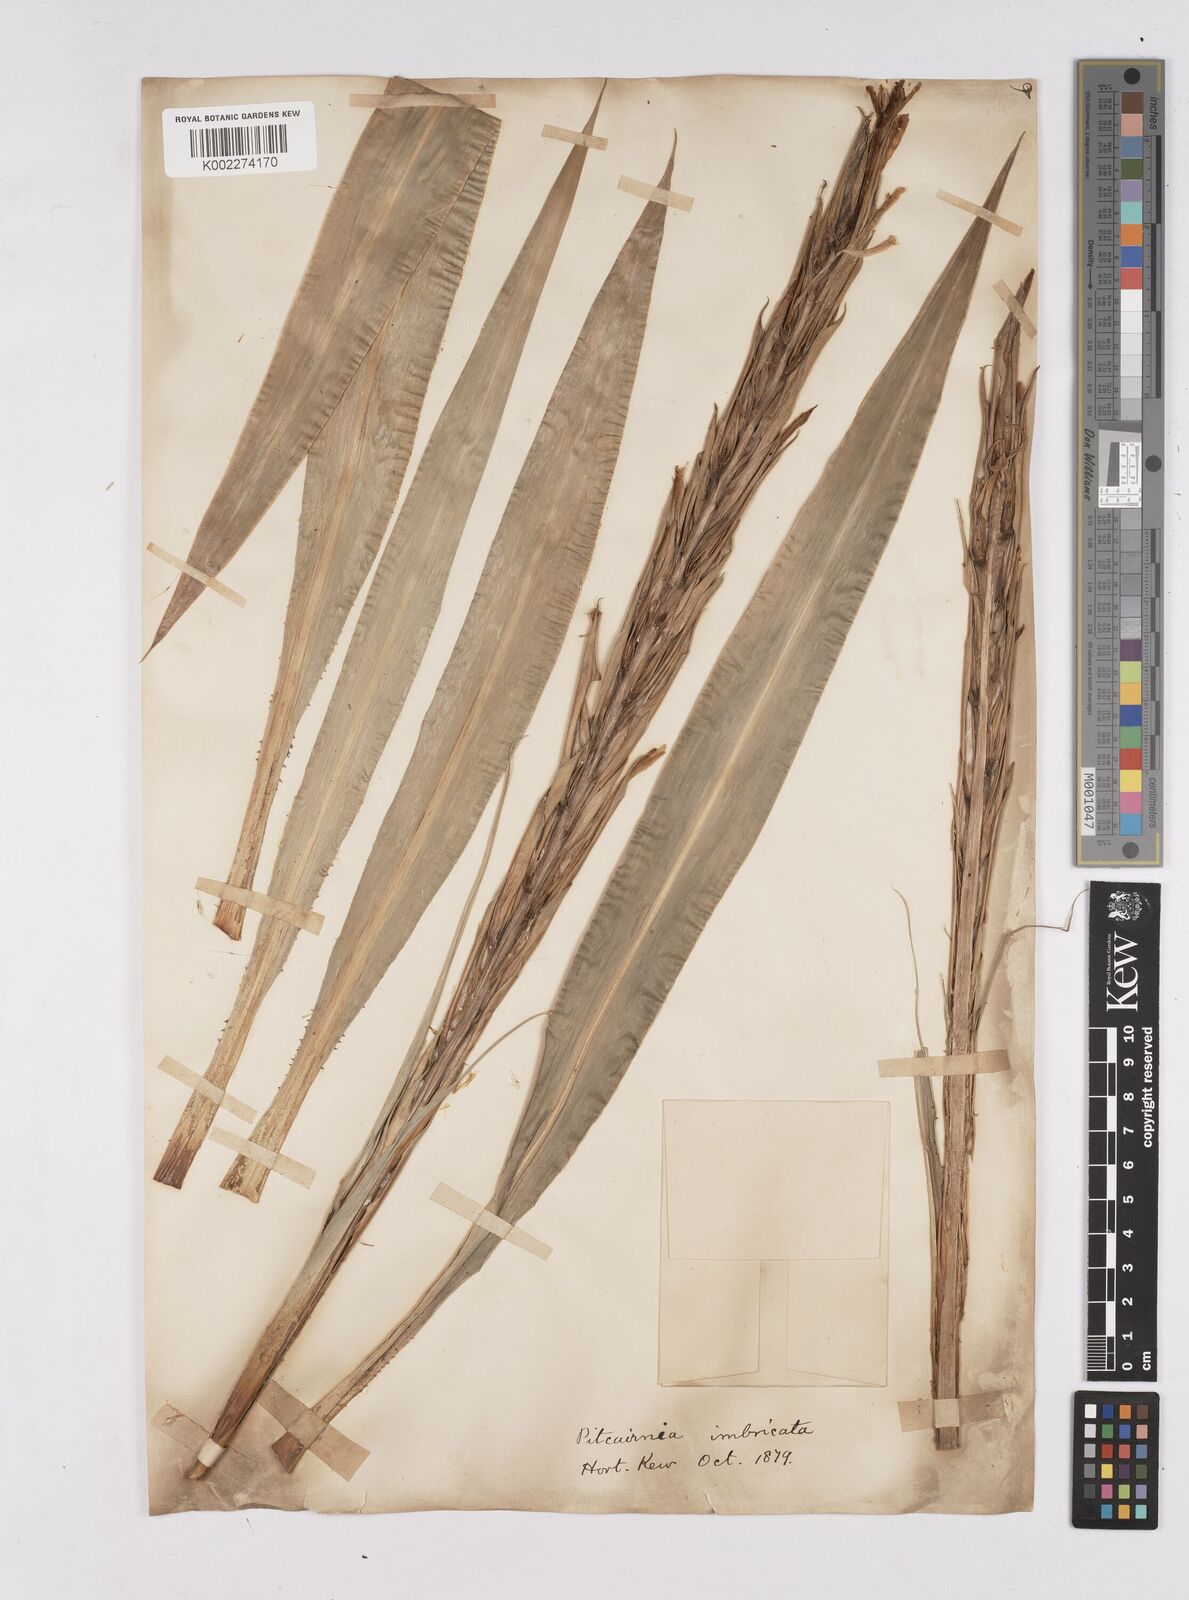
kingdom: Plantae
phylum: Tracheophyta
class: Liliopsida
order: Poales
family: Bromeliaceae
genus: Pitcairnia
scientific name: Pitcairnia imbricata
